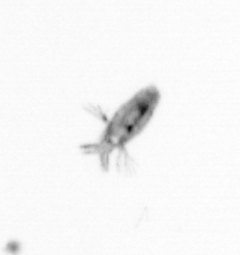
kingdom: Animalia
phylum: Arthropoda
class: Copepoda
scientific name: Copepoda
